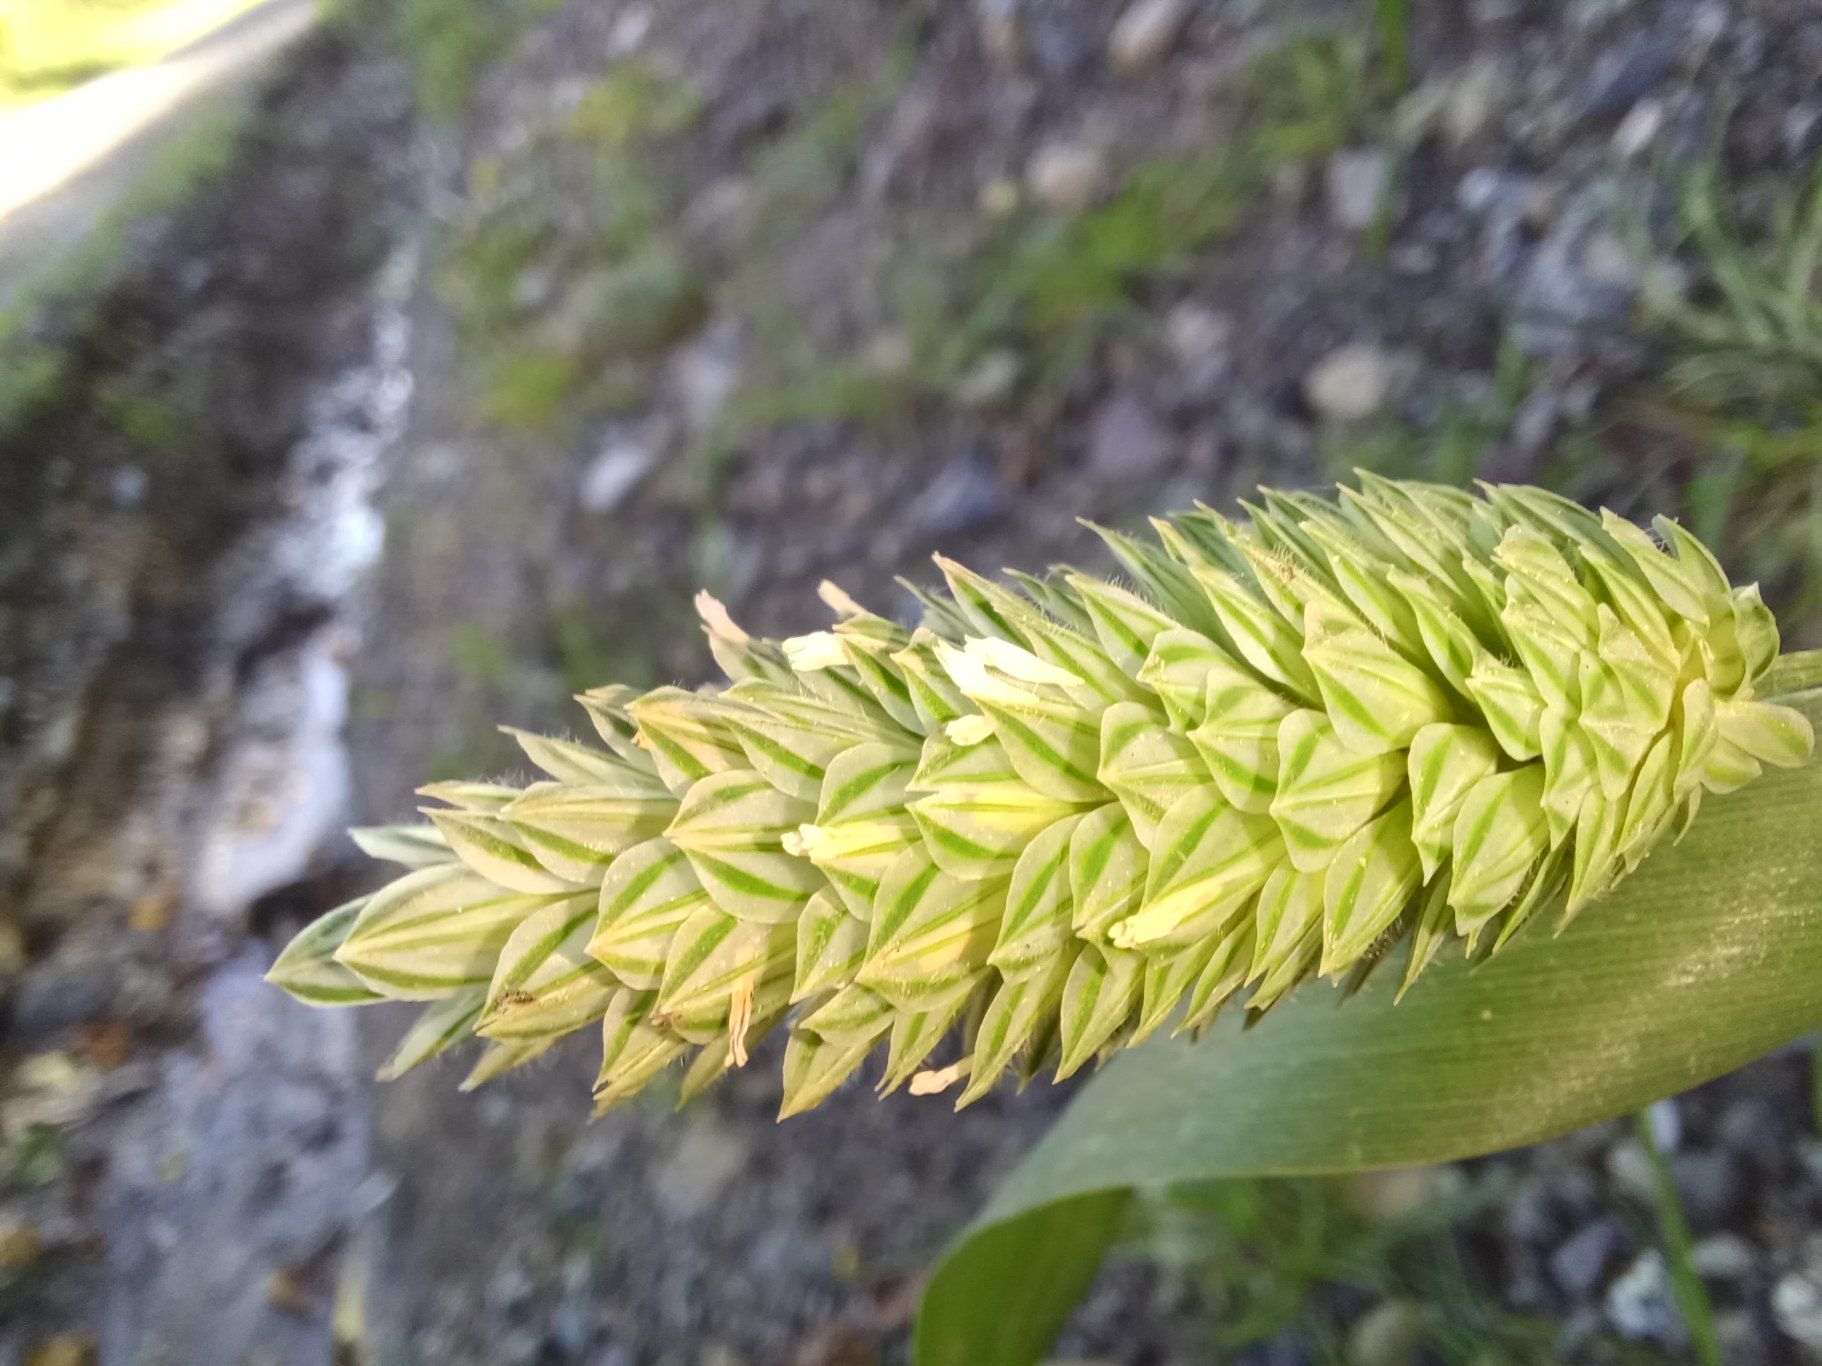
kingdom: Plantae
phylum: Tracheophyta
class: Liliopsida
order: Poales
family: Poaceae
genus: Phalaris
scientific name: Phalaris canariensis
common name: Kanariegræs
